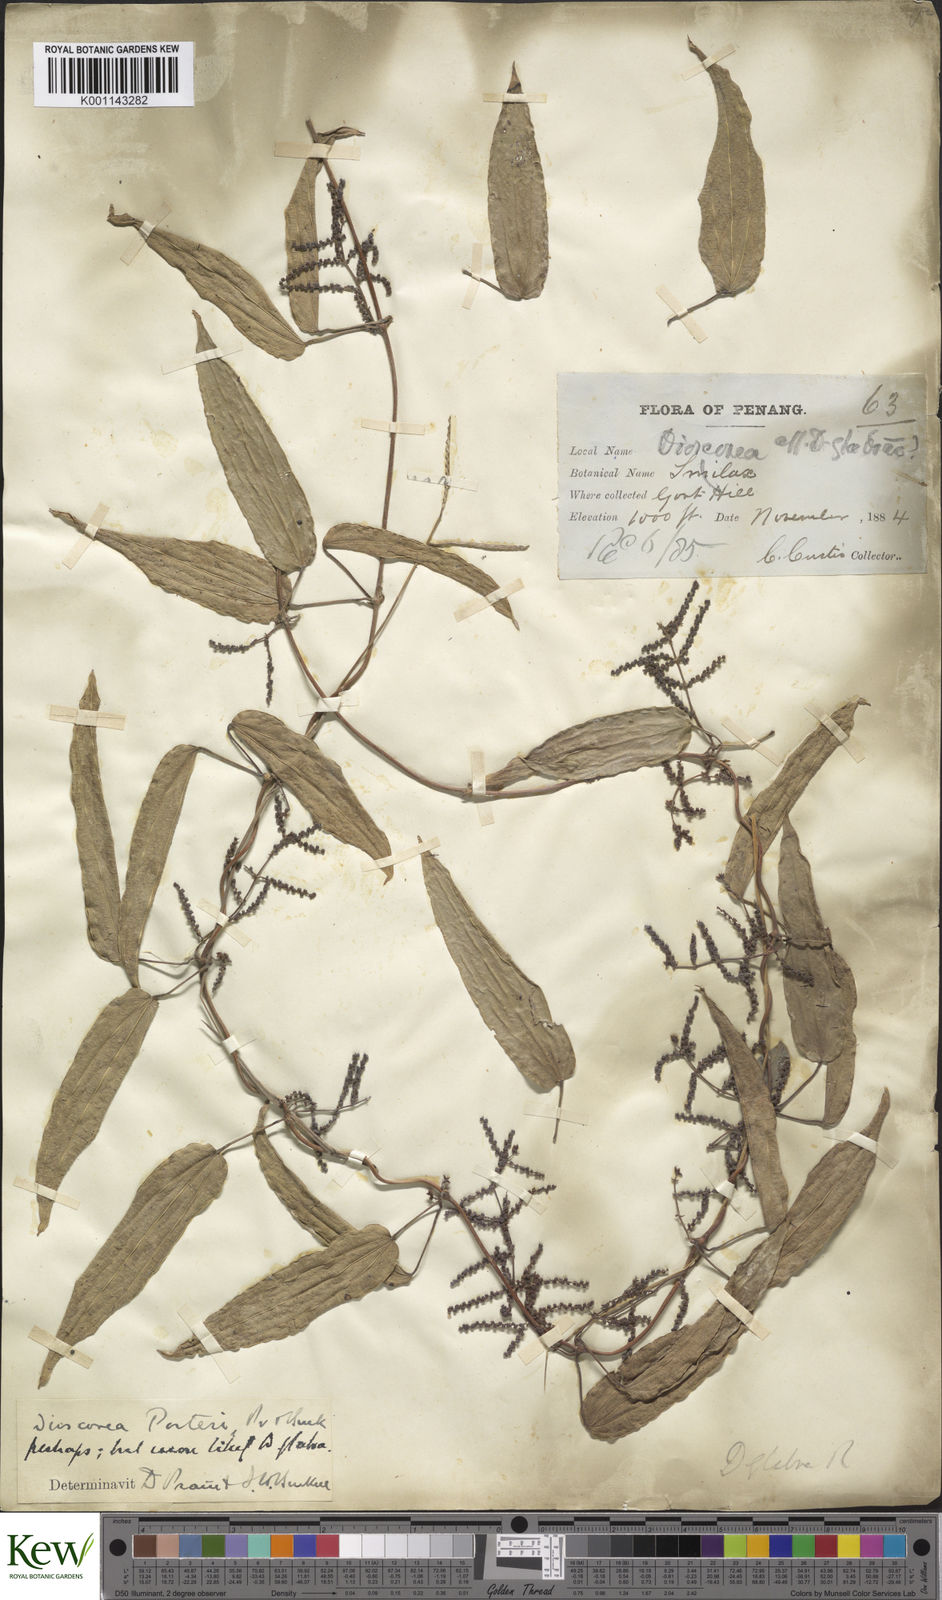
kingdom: Plantae
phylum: Tracheophyta
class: Liliopsida
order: Dioscoreales
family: Dioscoreaceae
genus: Dioscorea
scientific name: Dioscorea glabra
